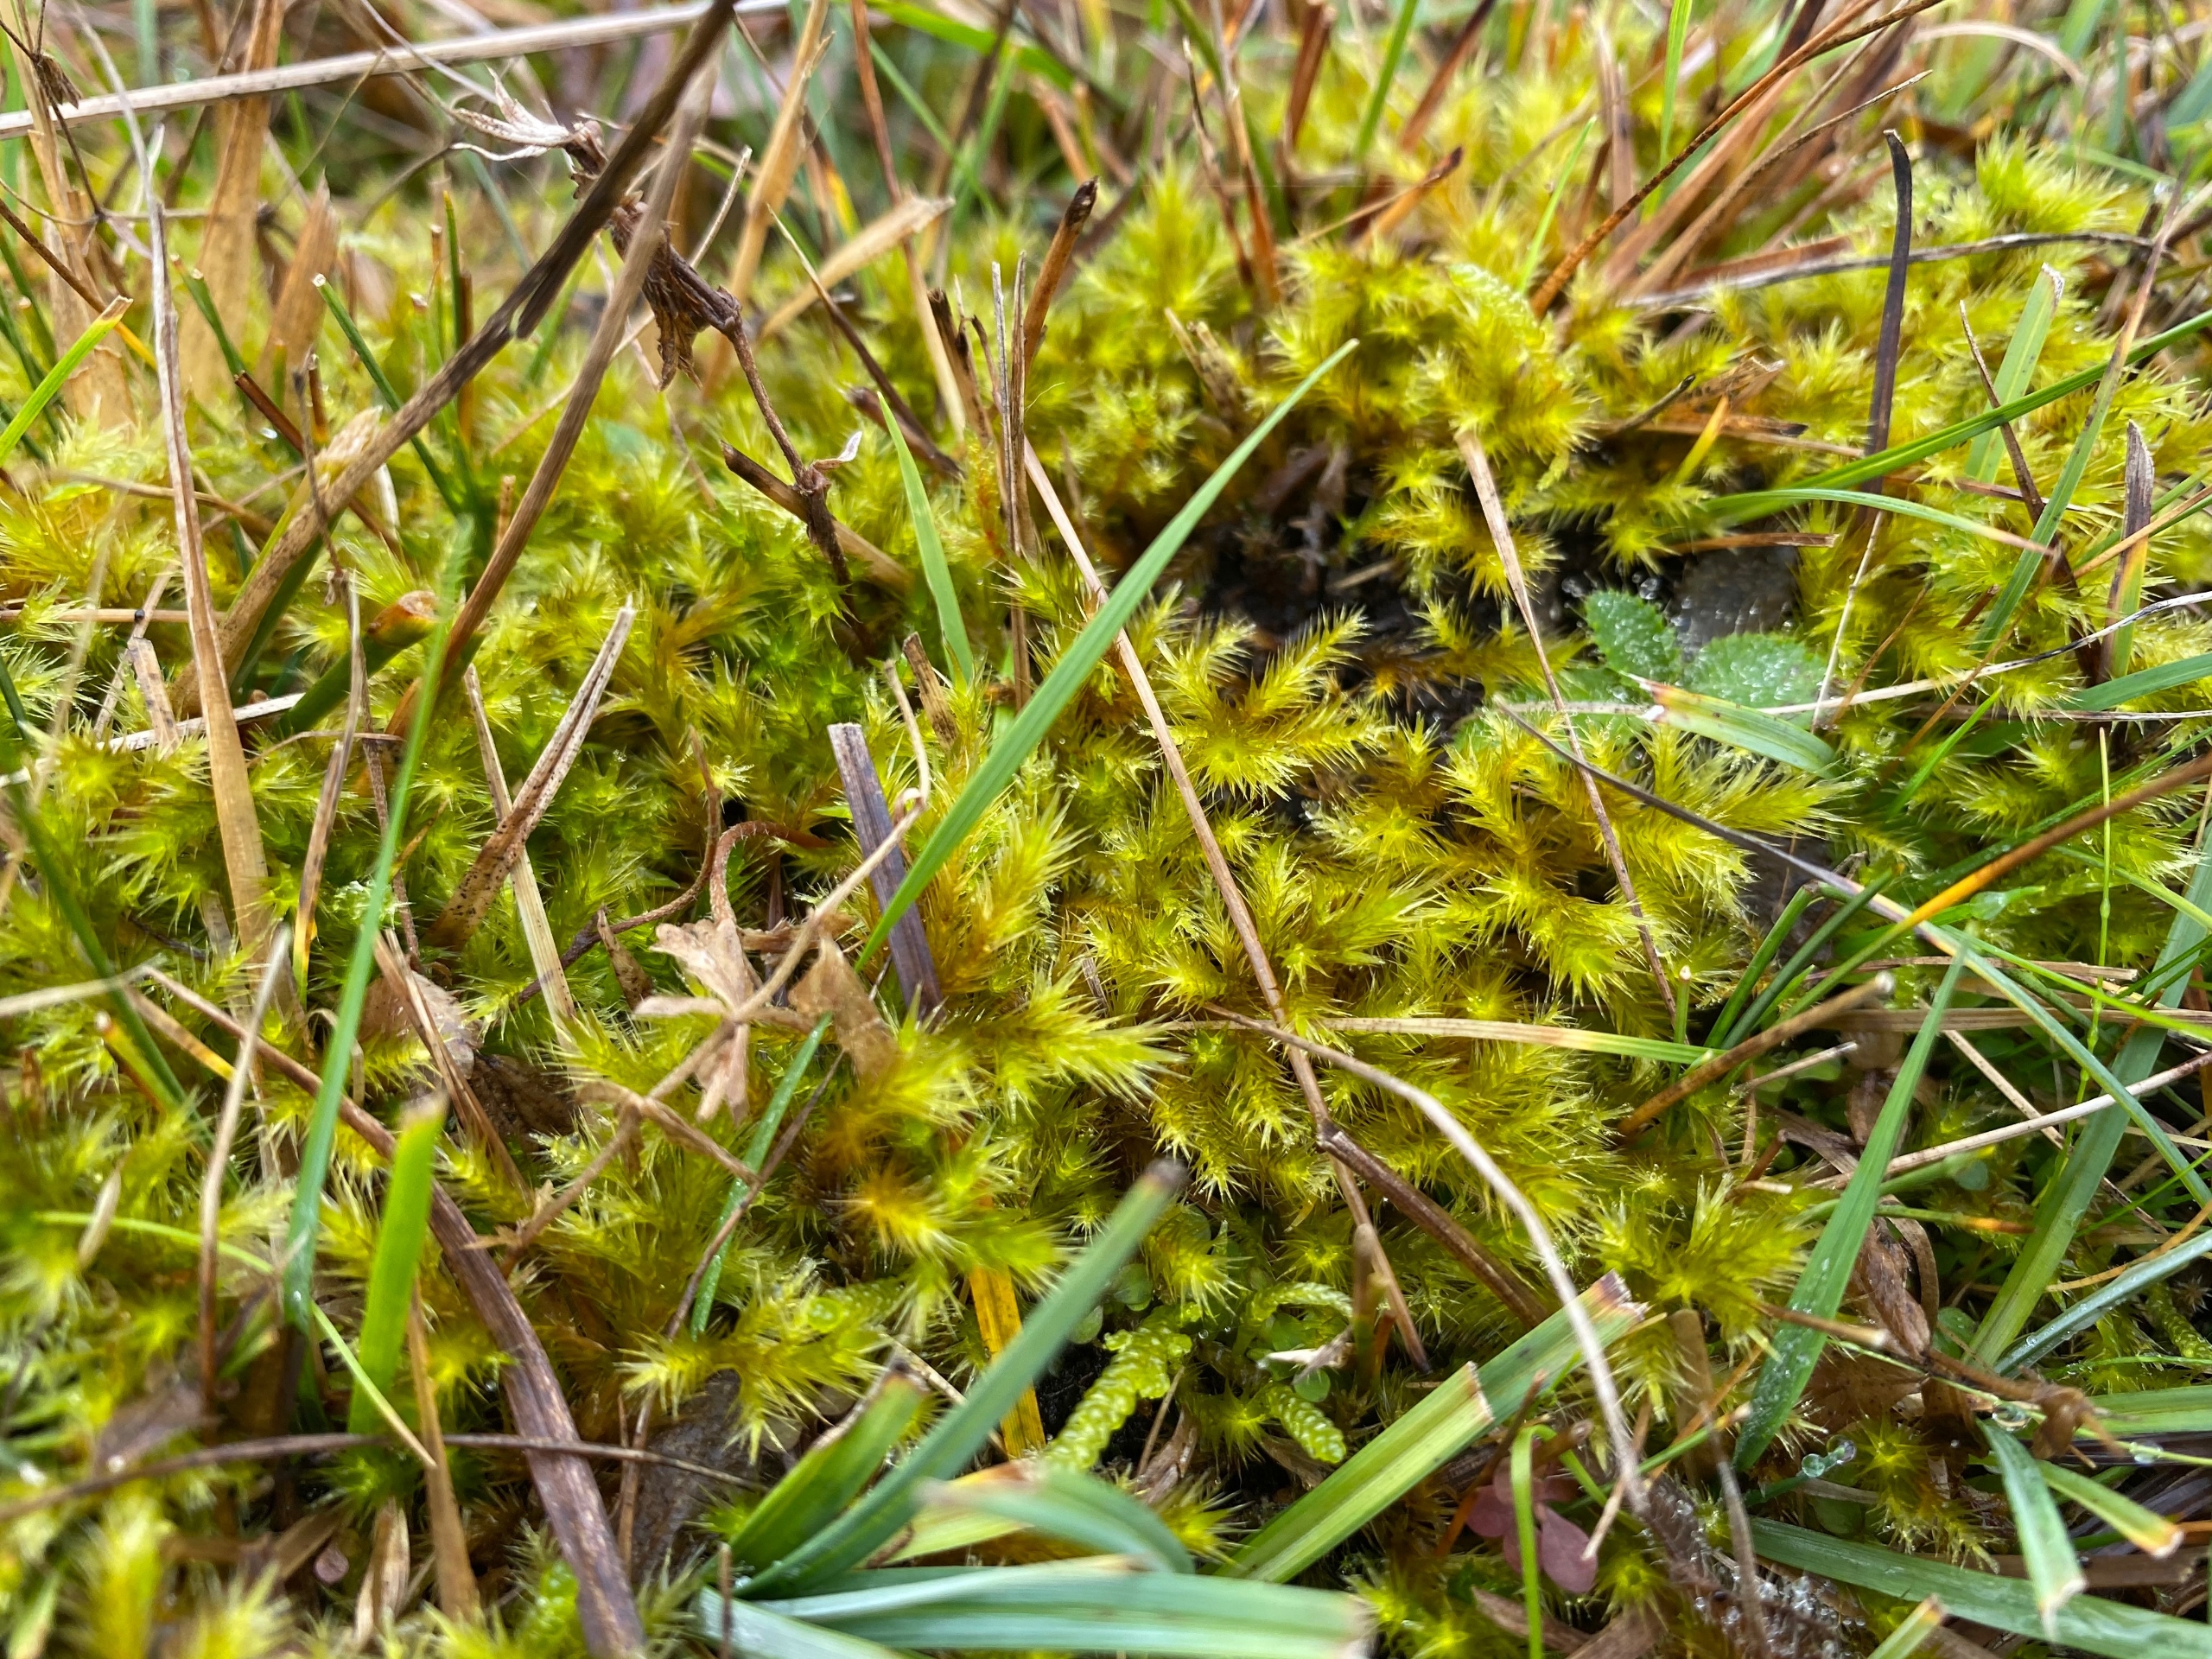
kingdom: Plantae
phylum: Bryophyta
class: Bryopsida
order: Hypnales
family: Amblystegiaceae
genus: Tomentypnum
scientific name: Tomentypnum nitens
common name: Glinsende kærmos
